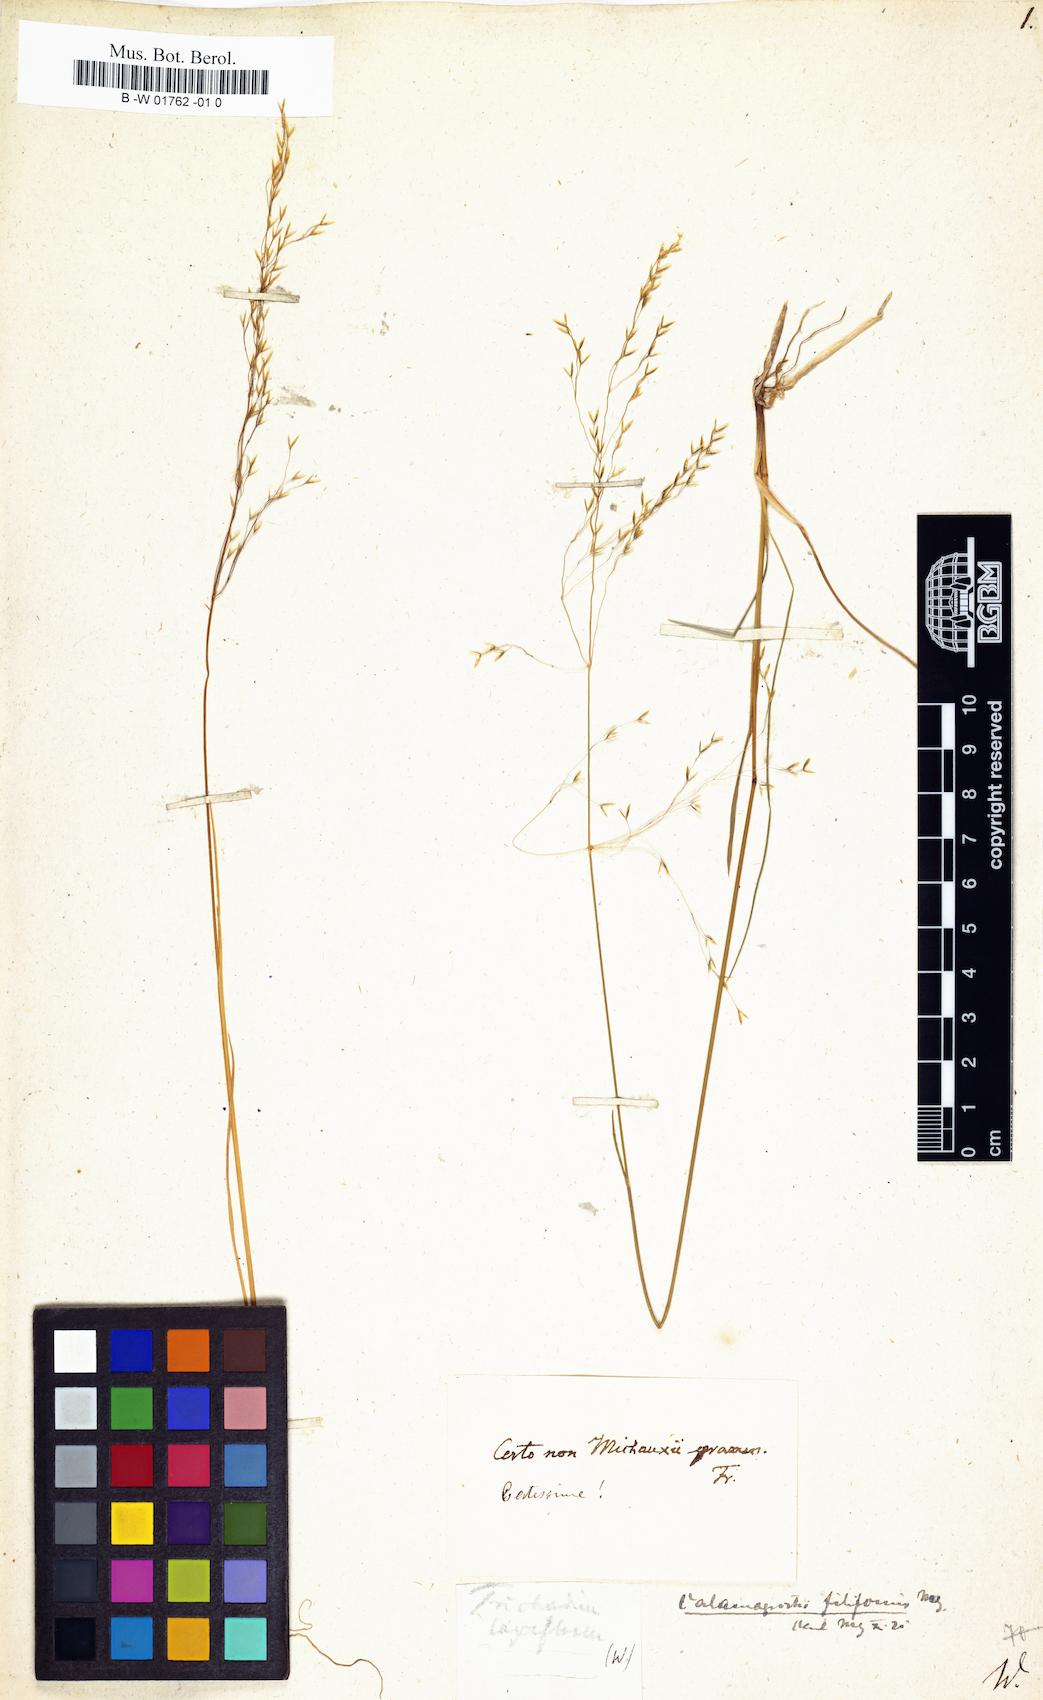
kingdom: Plantae
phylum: Tracheophyta
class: Liliopsida
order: Poales
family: Poaceae
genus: Agrostis
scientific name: Agrostis hyemalis
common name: Small bent
